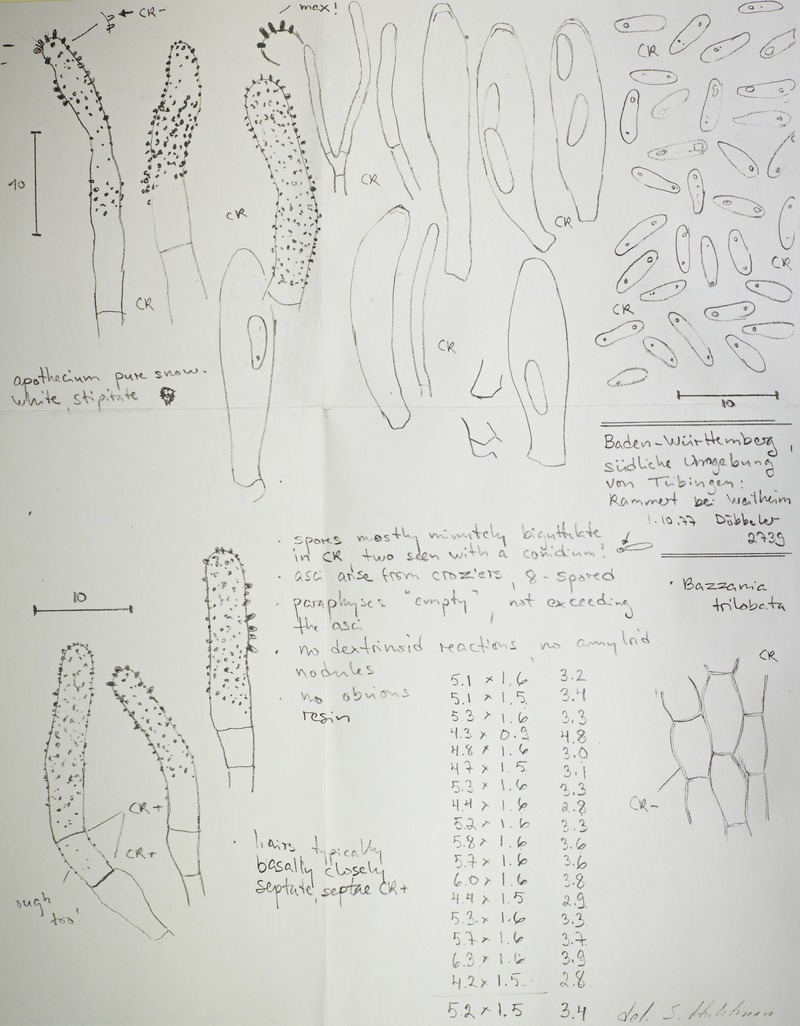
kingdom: Fungi
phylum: Ascomycota
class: Leotiomycetes
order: Helotiales
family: Hyphodiscaceae
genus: Hyphodiscus
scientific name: Hyphodiscus delitescens
